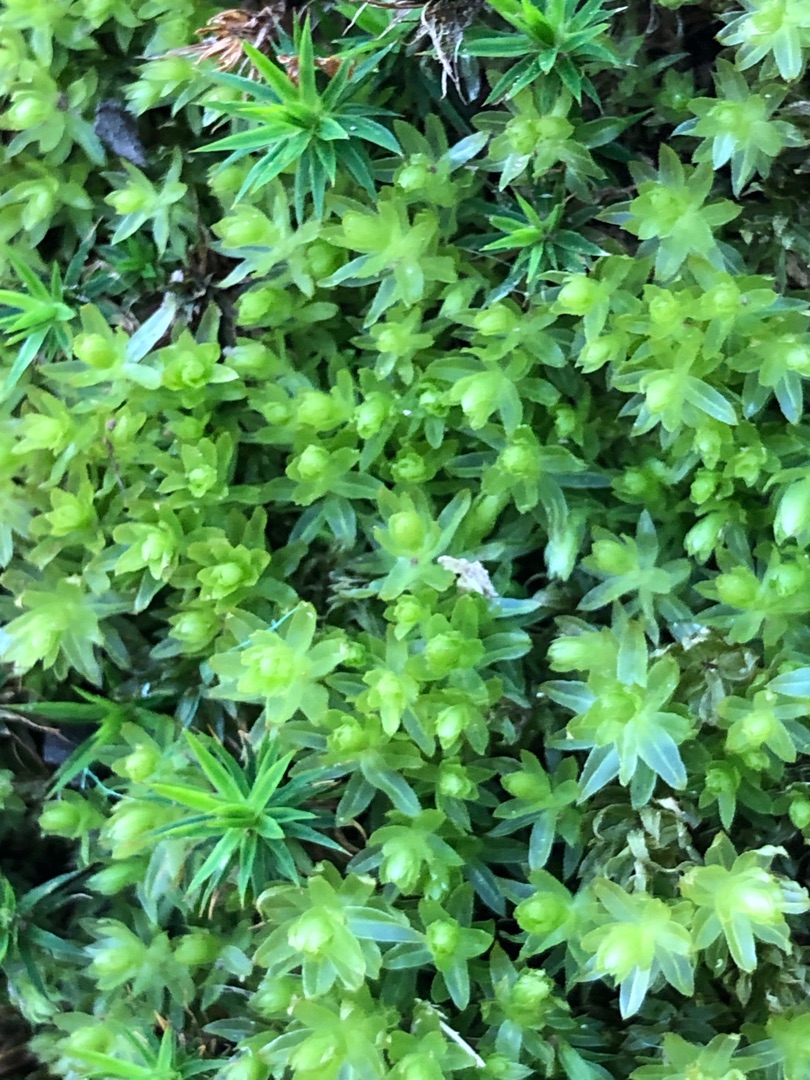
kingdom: Plantae
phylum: Bryophyta
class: Bryopsida
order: Bryales
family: Mniaceae
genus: Mnium
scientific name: Mnium hornum
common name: Brunfiltet stjernemos
